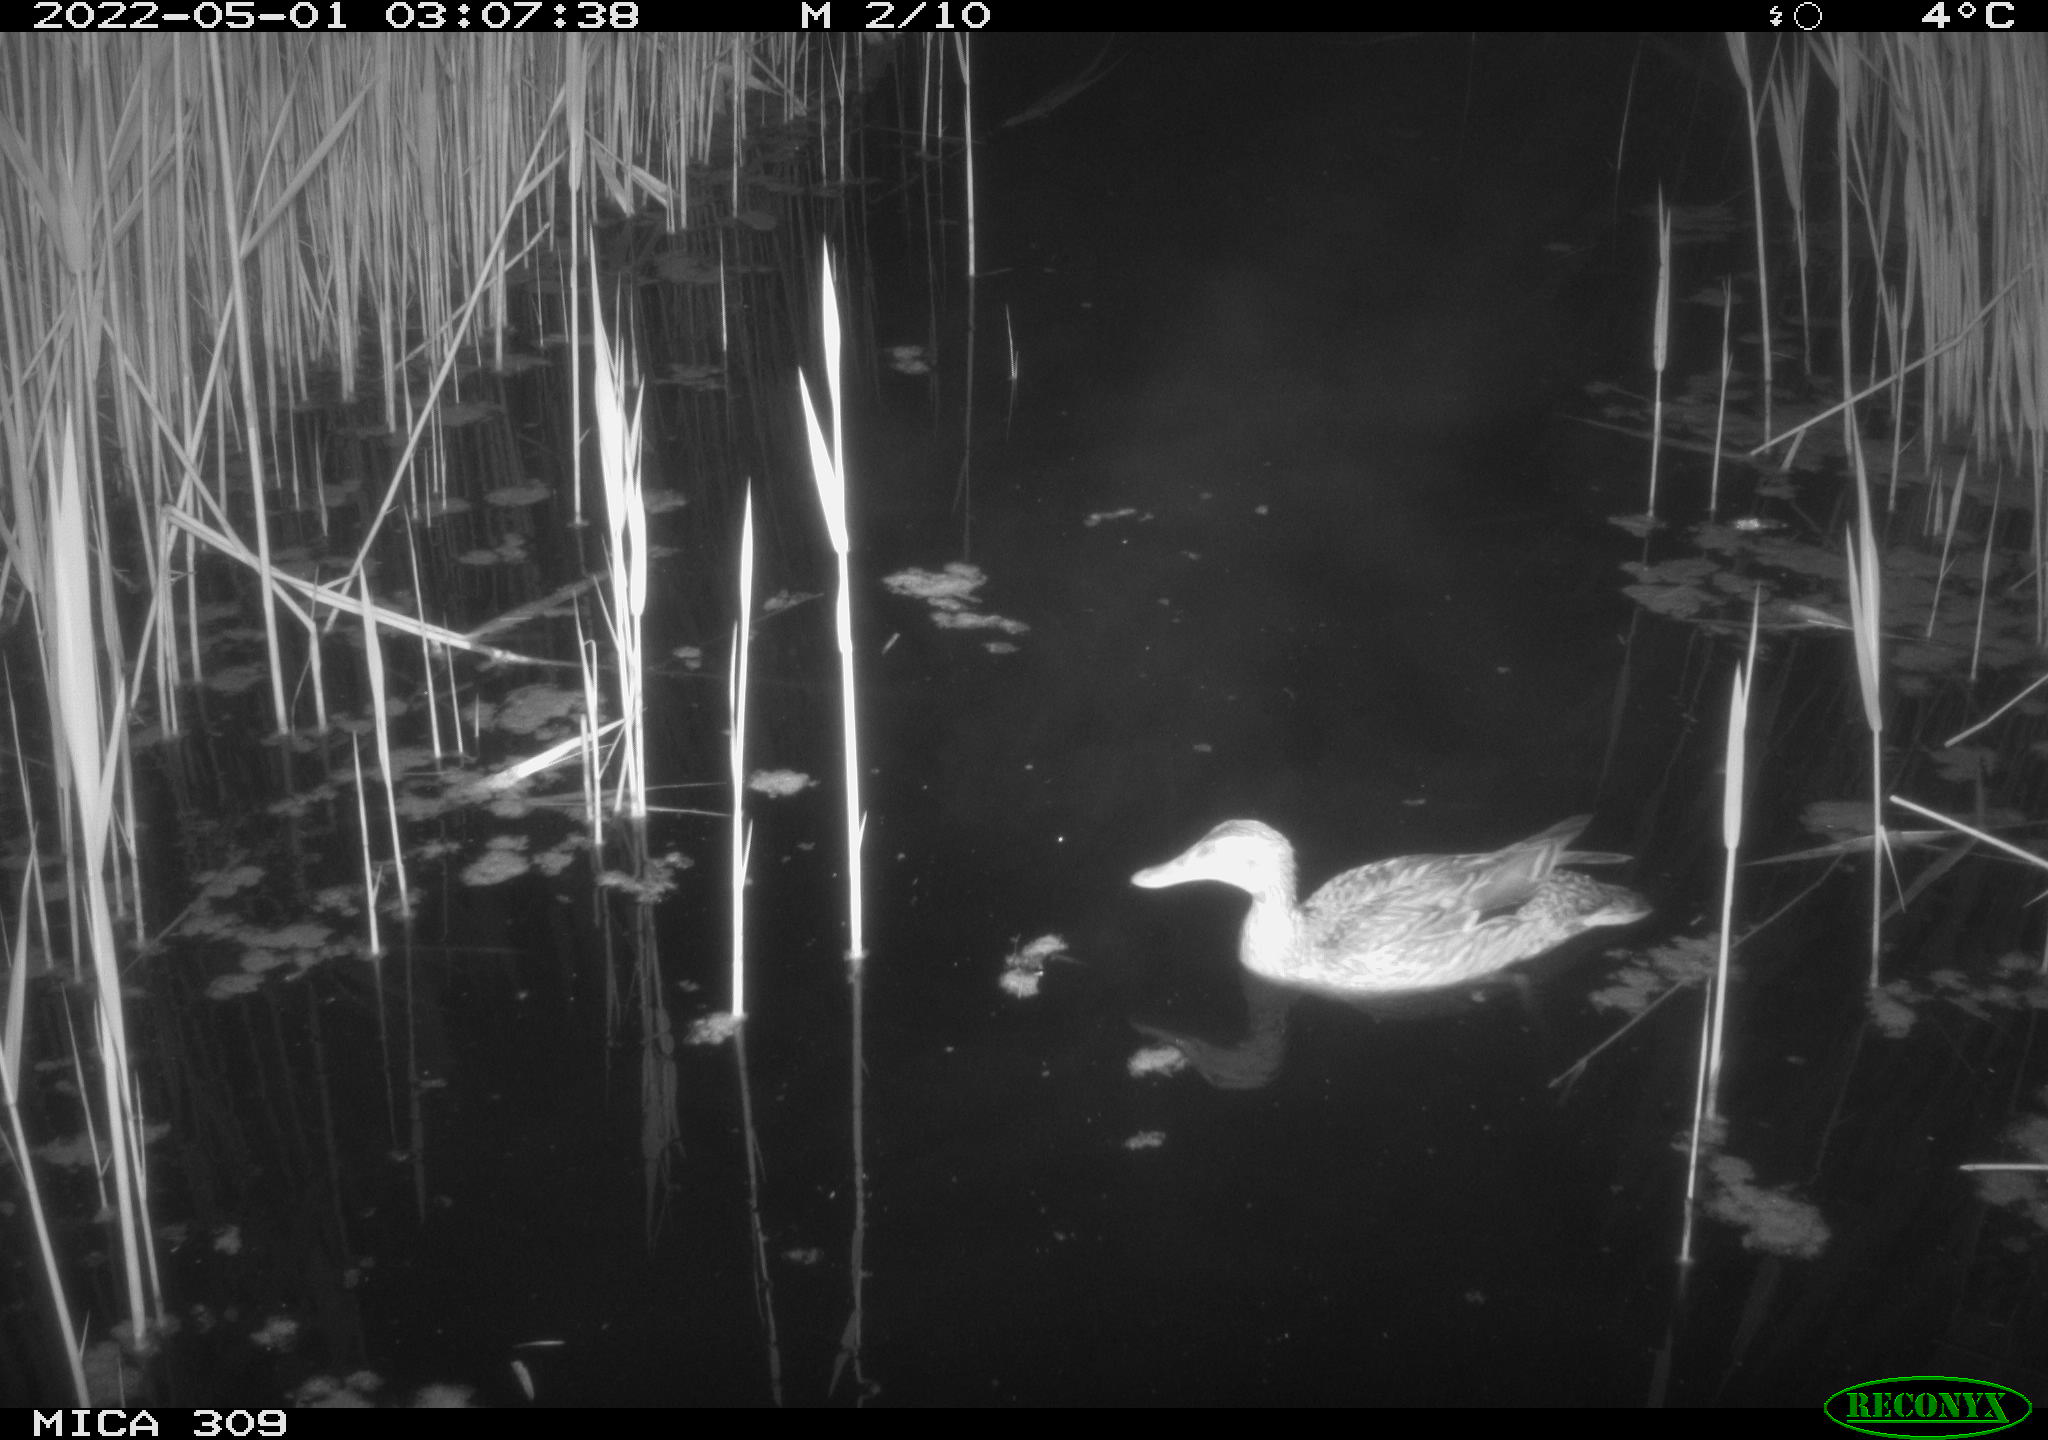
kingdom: Animalia
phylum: Chordata
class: Aves
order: Anseriformes
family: Anatidae
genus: Mareca
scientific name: Mareca strepera
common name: Gadwall
